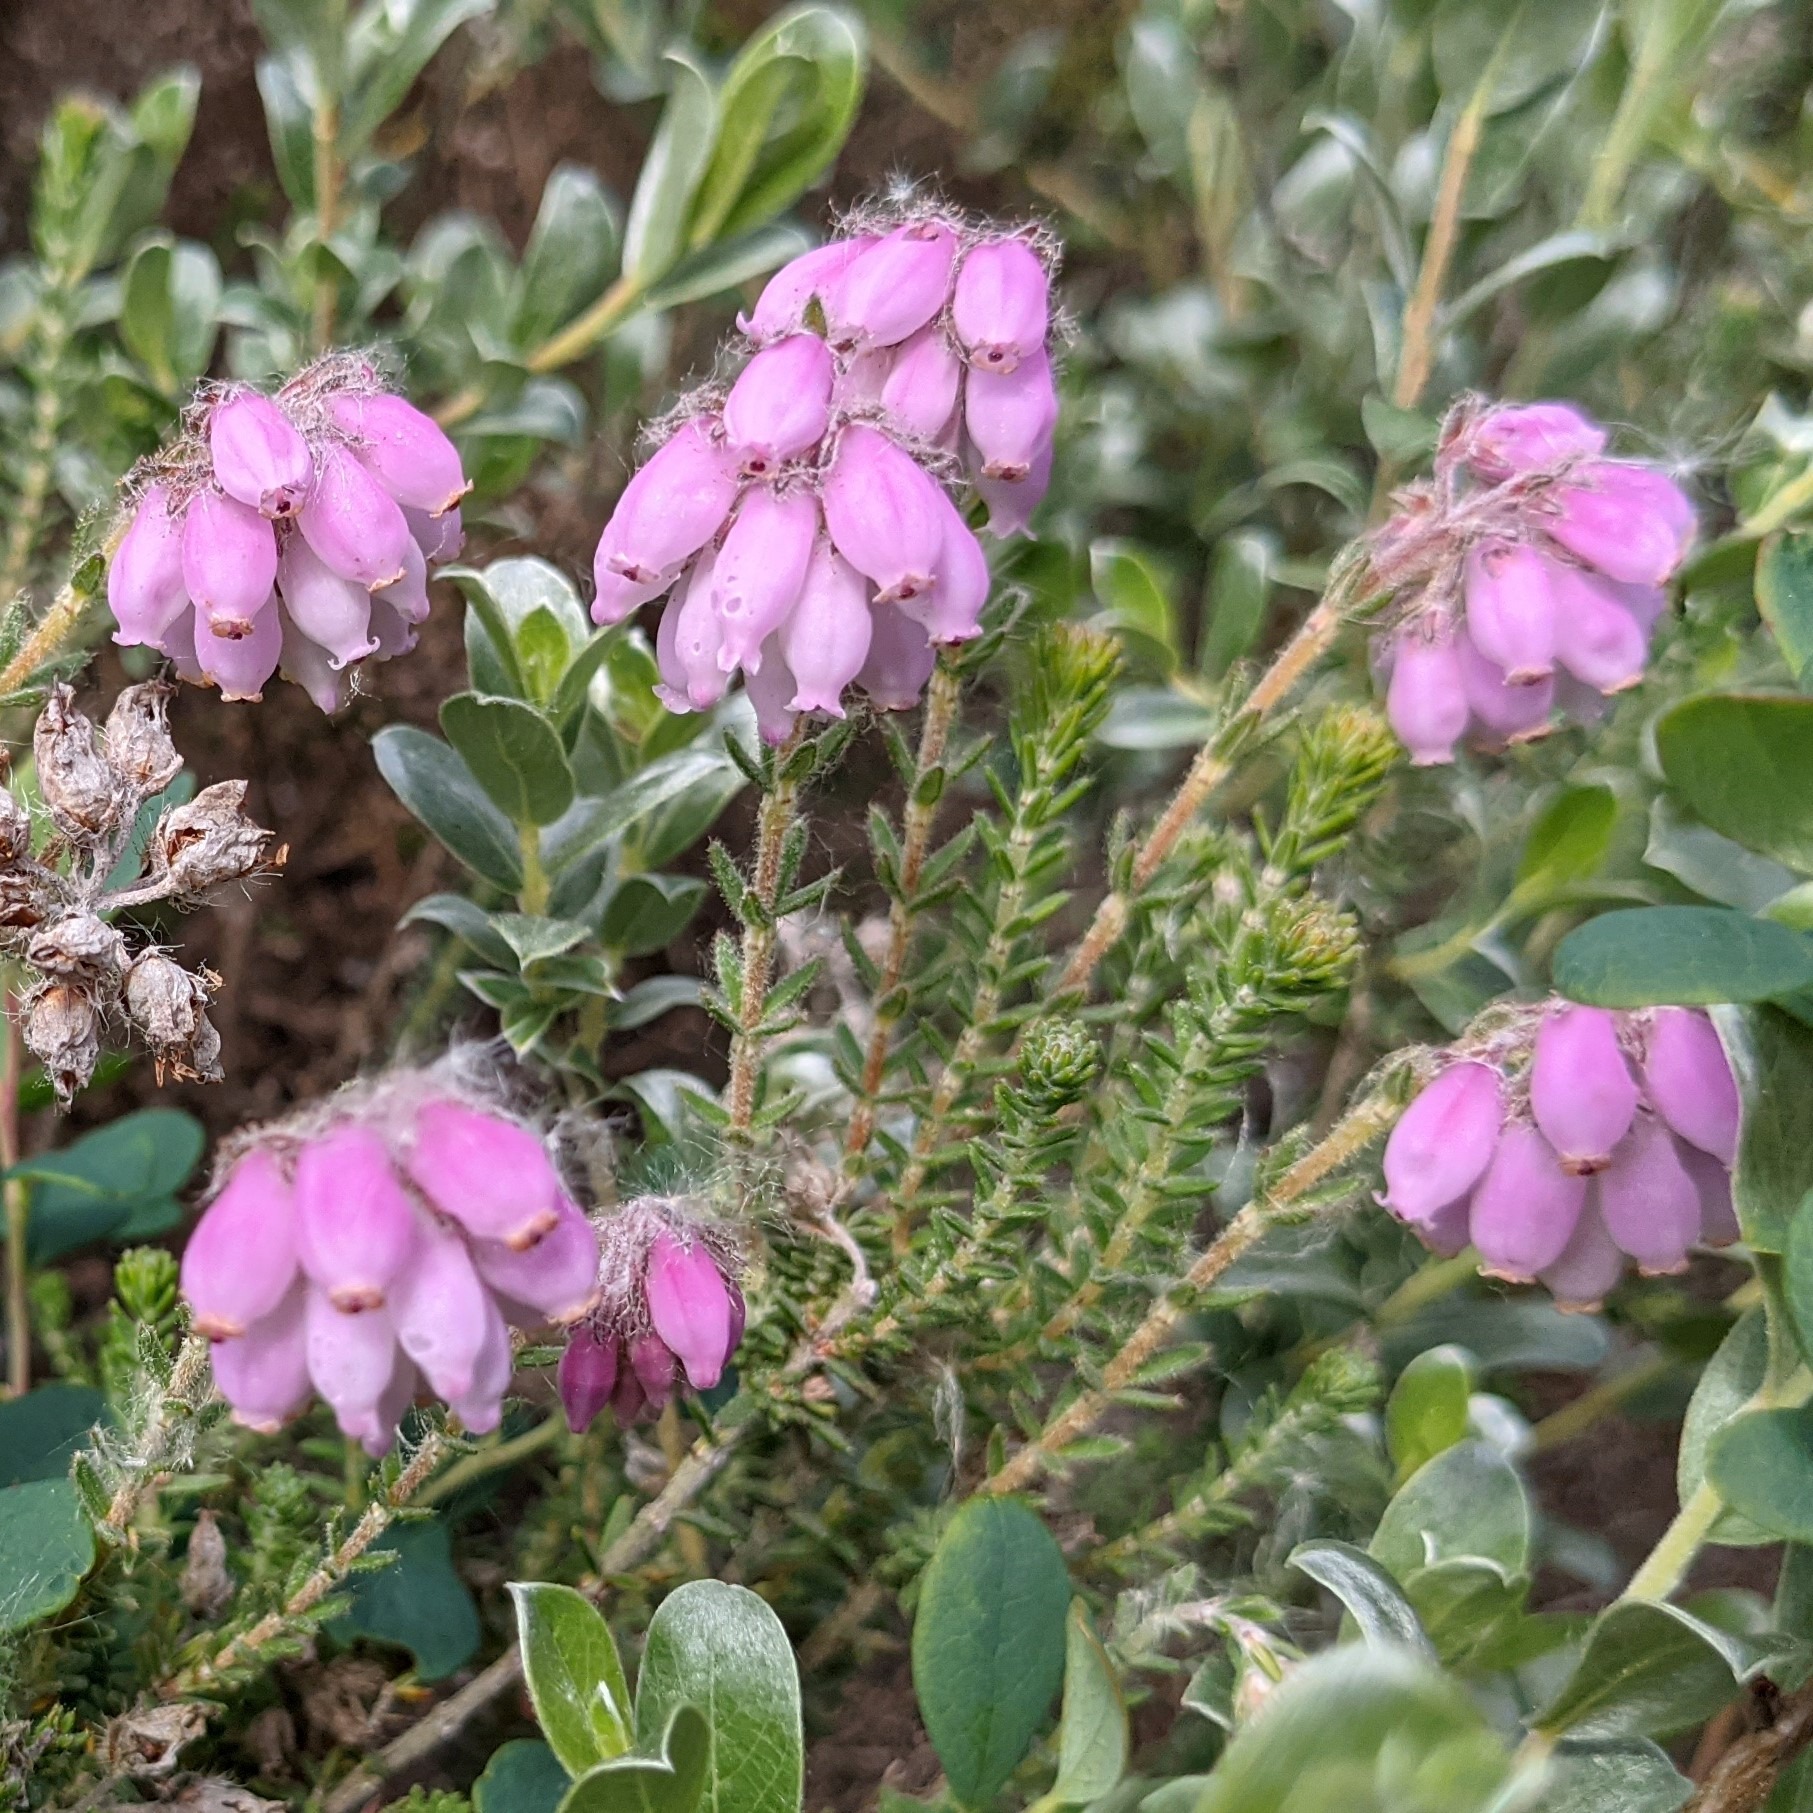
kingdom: Plantae
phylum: Tracheophyta
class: Magnoliopsida
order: Ericales
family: Ericaceae
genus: Erica
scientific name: Erica tetralix
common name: Klokkelyng
